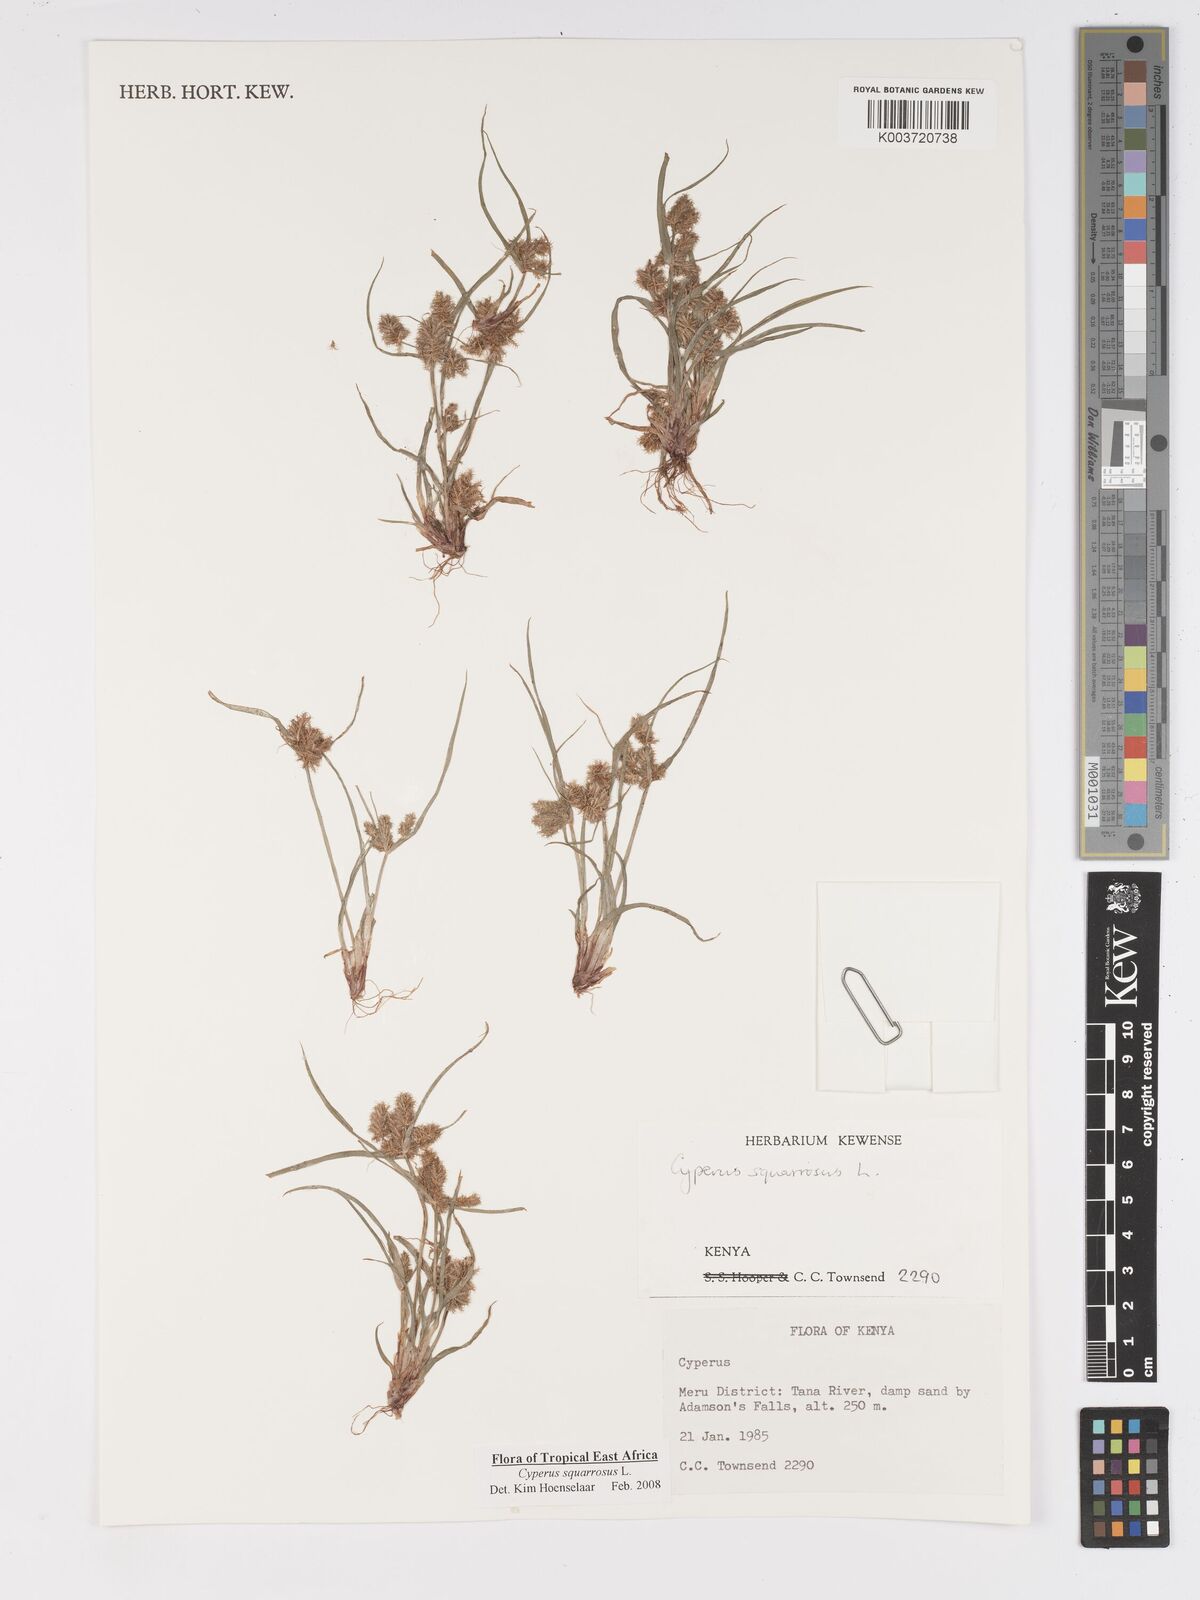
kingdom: Plantae
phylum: Tracheophyta
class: Liliopsida
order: Poales
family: Cyperaceae
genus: Cyperus
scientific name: Cyperus squarrosus
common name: Awned cyperus
